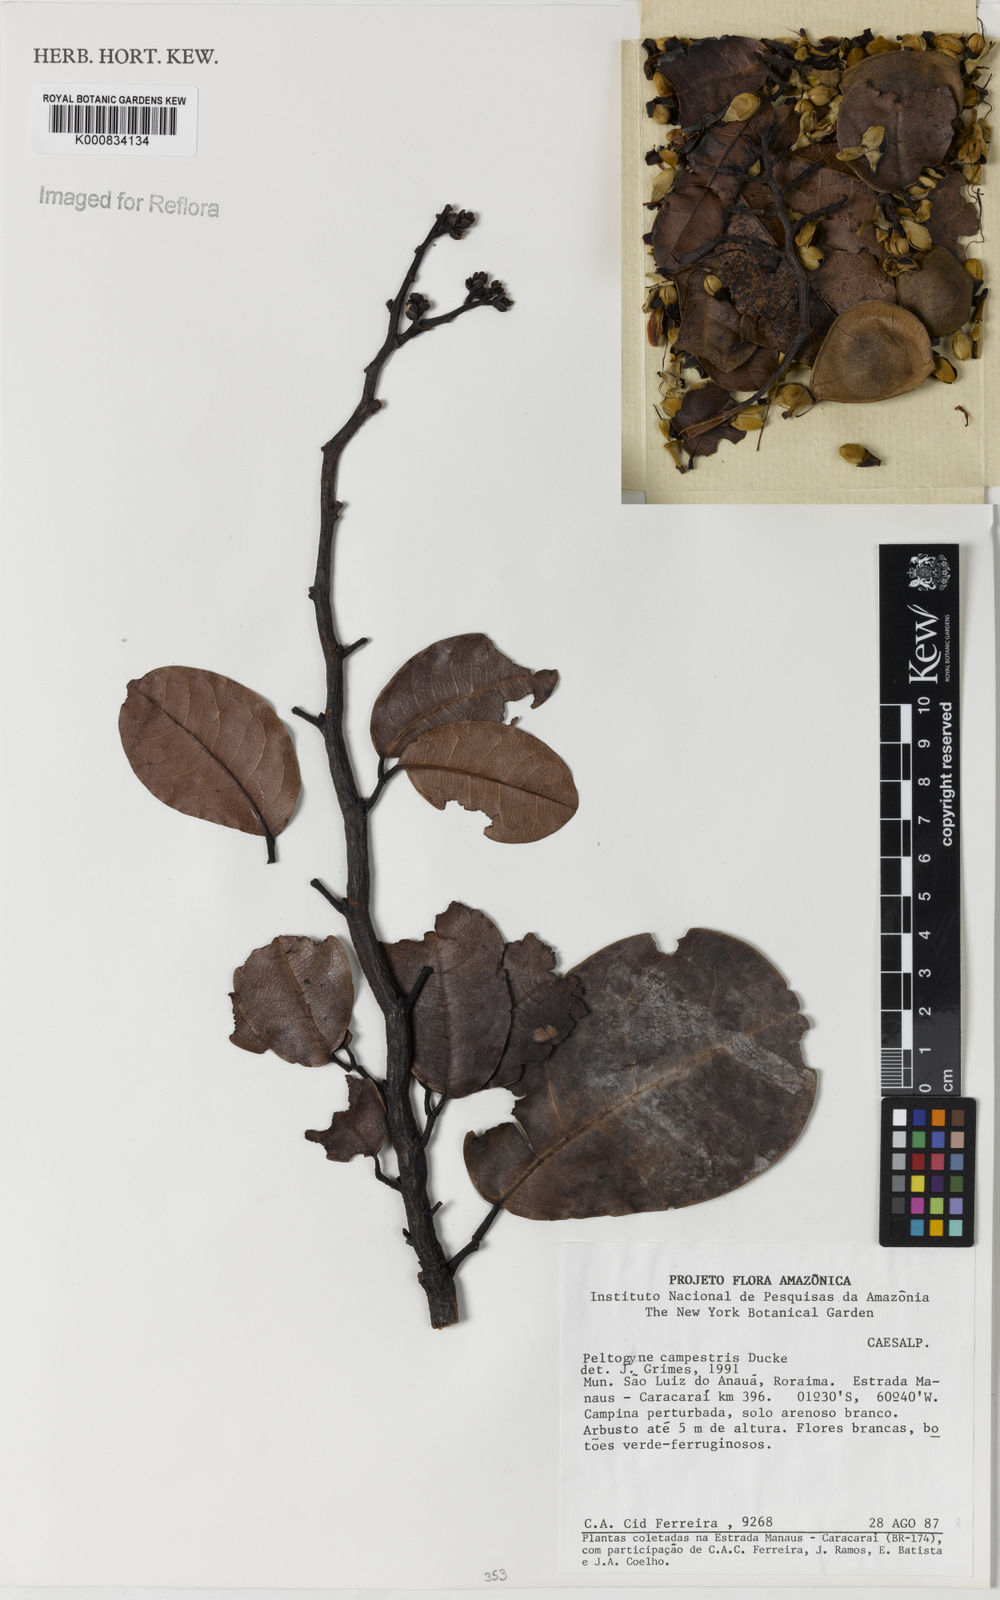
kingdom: Plantae
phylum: Tracheophyta
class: Magnoliopsida
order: Fabales
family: Fabaceae
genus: Peltogyne
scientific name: Peltogyne campestris
